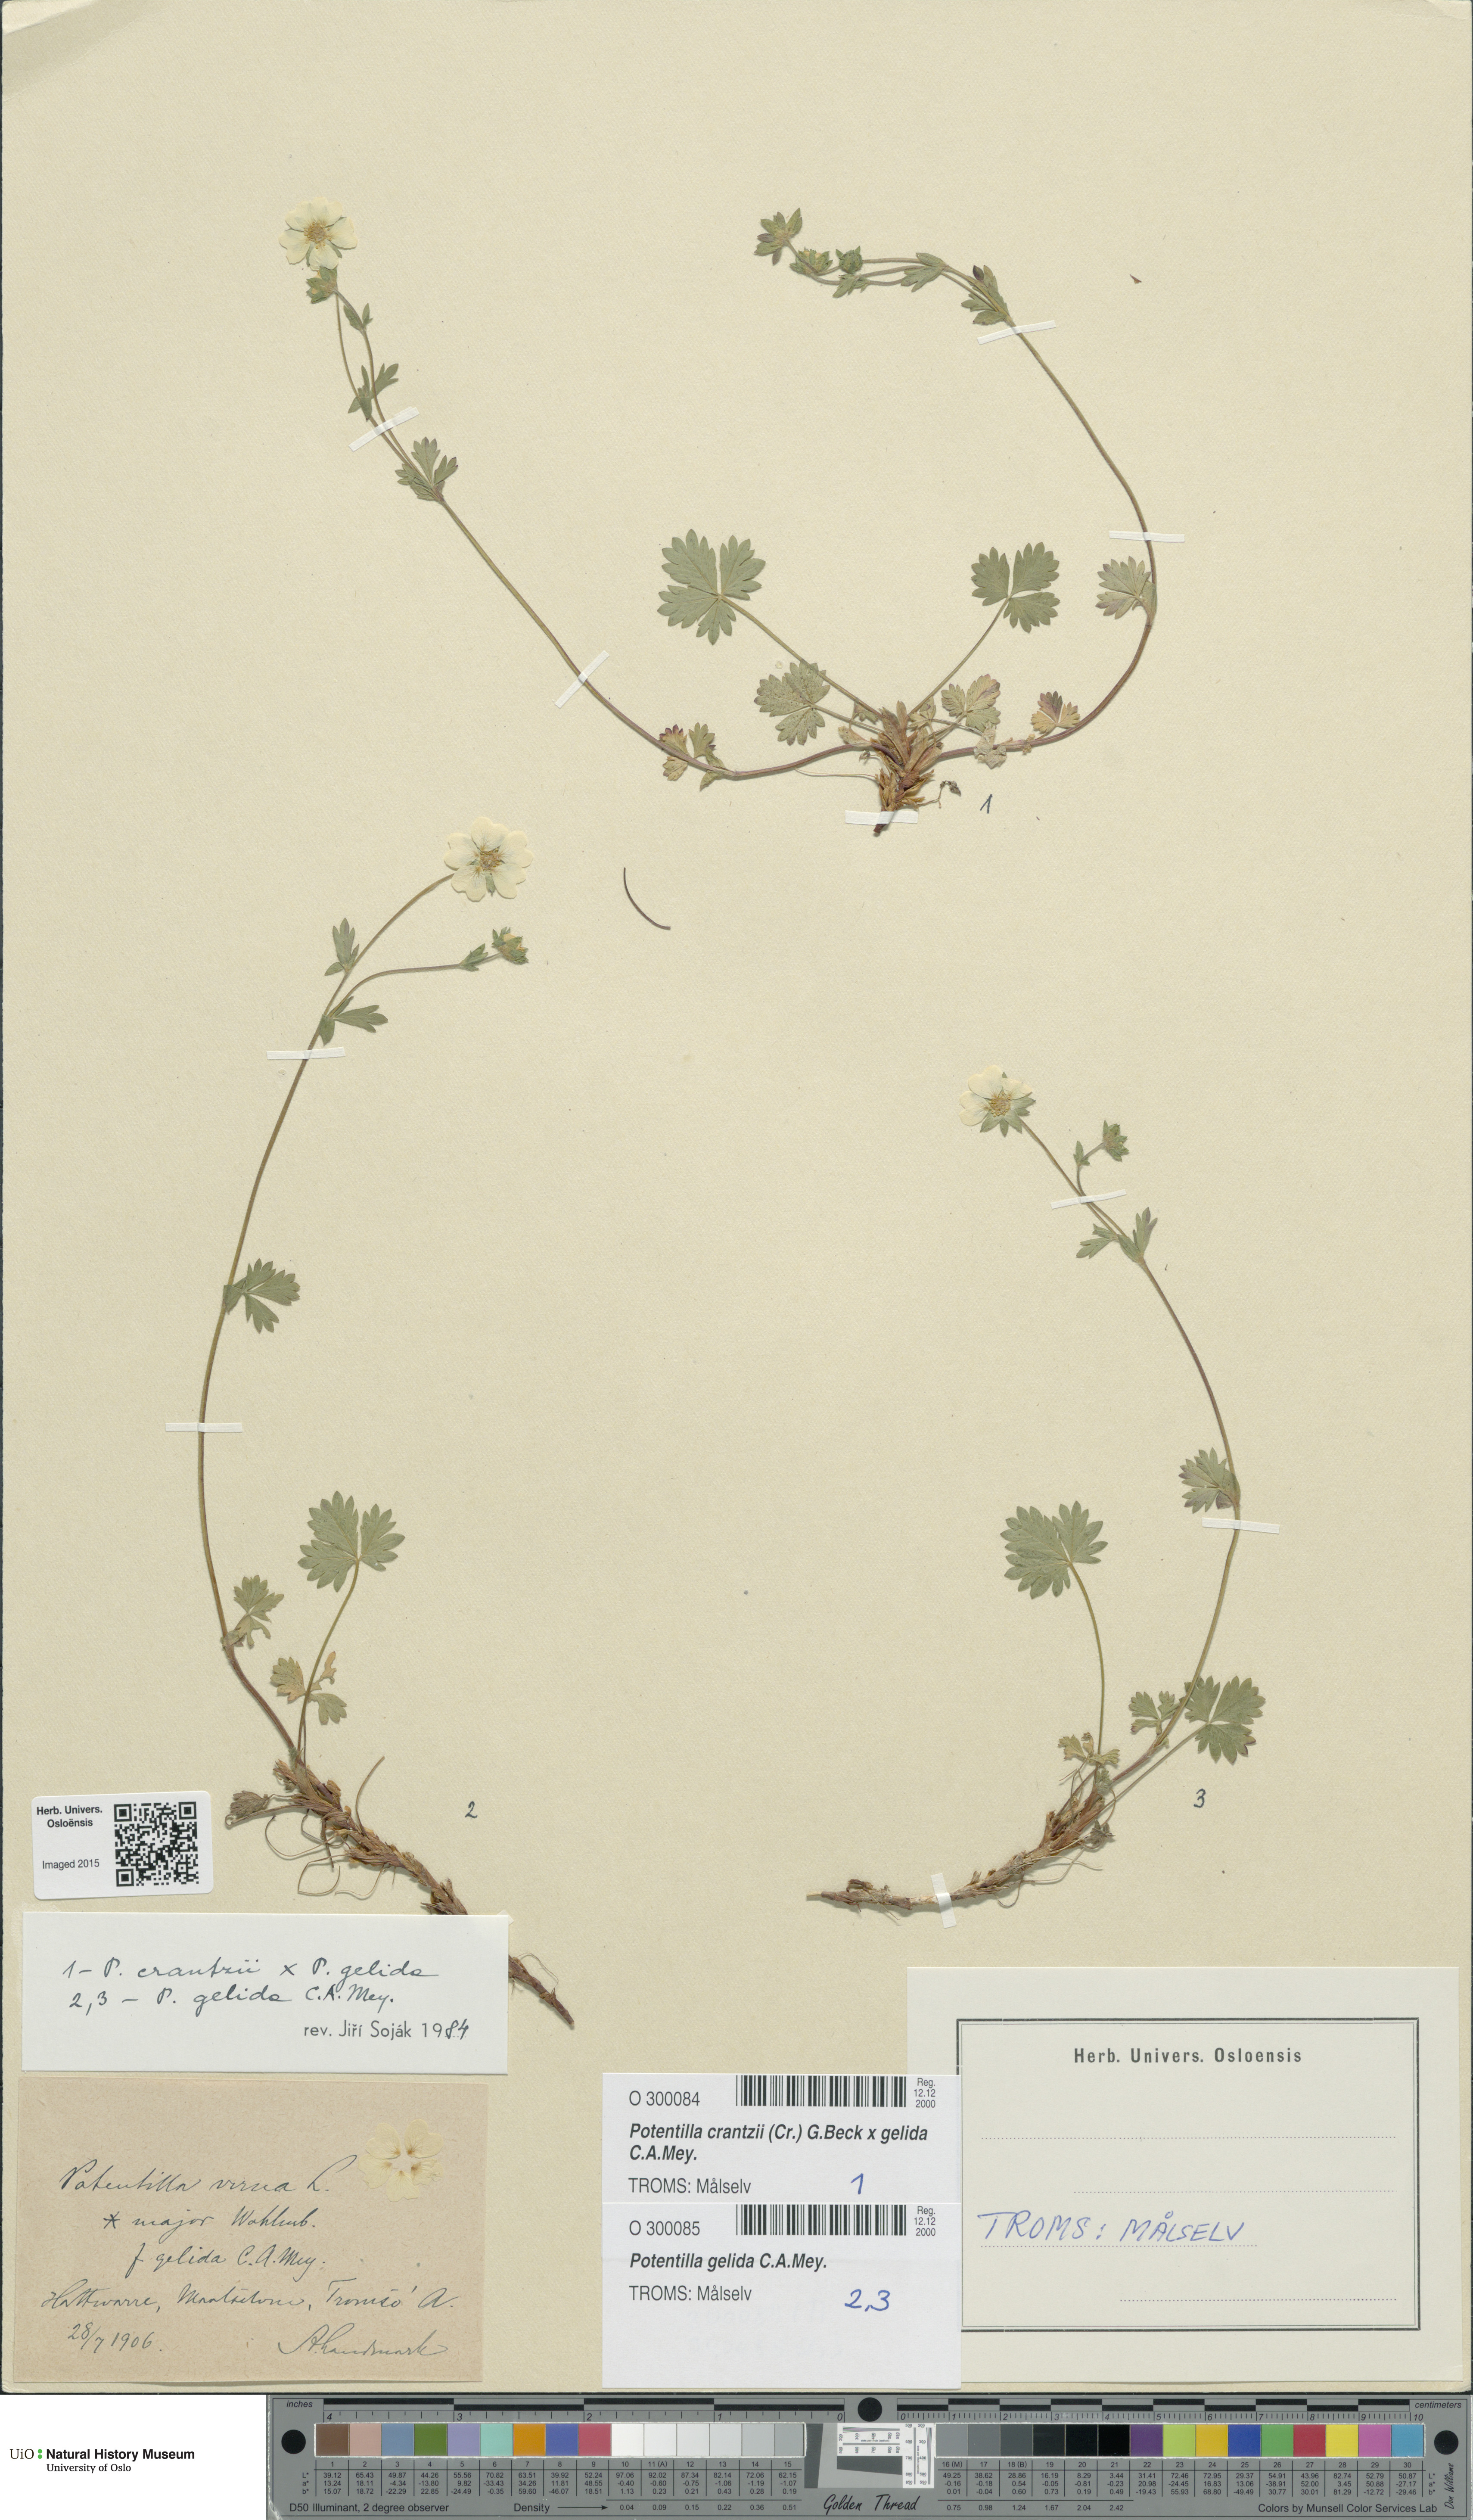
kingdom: Plantae
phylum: Tracheophyta
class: Magnoliopsida
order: Rosales
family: Rosaceae
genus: Potentilla
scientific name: Potentilla
